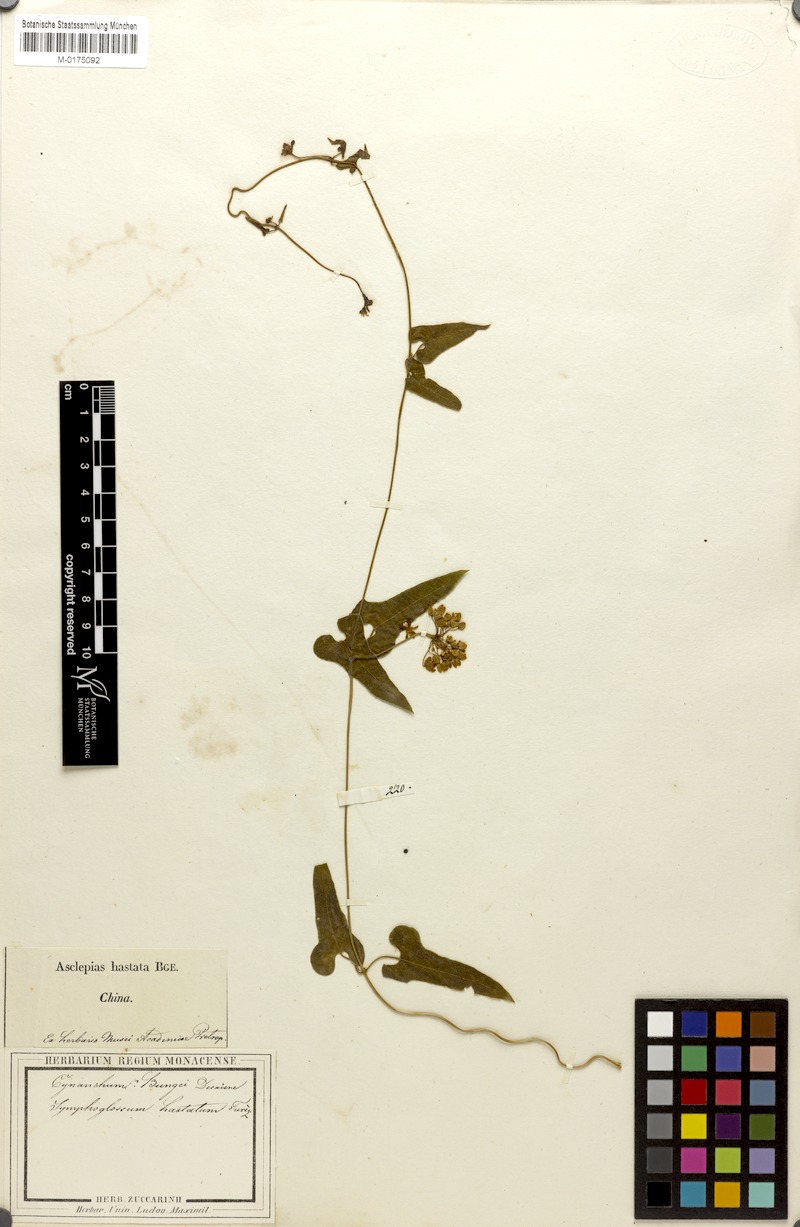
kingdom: Plantae
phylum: Tracheophyta
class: Magnoliopsida
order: Gentianales
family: Apocynaceae
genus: Cynanchum
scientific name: Cynanchum bungei
